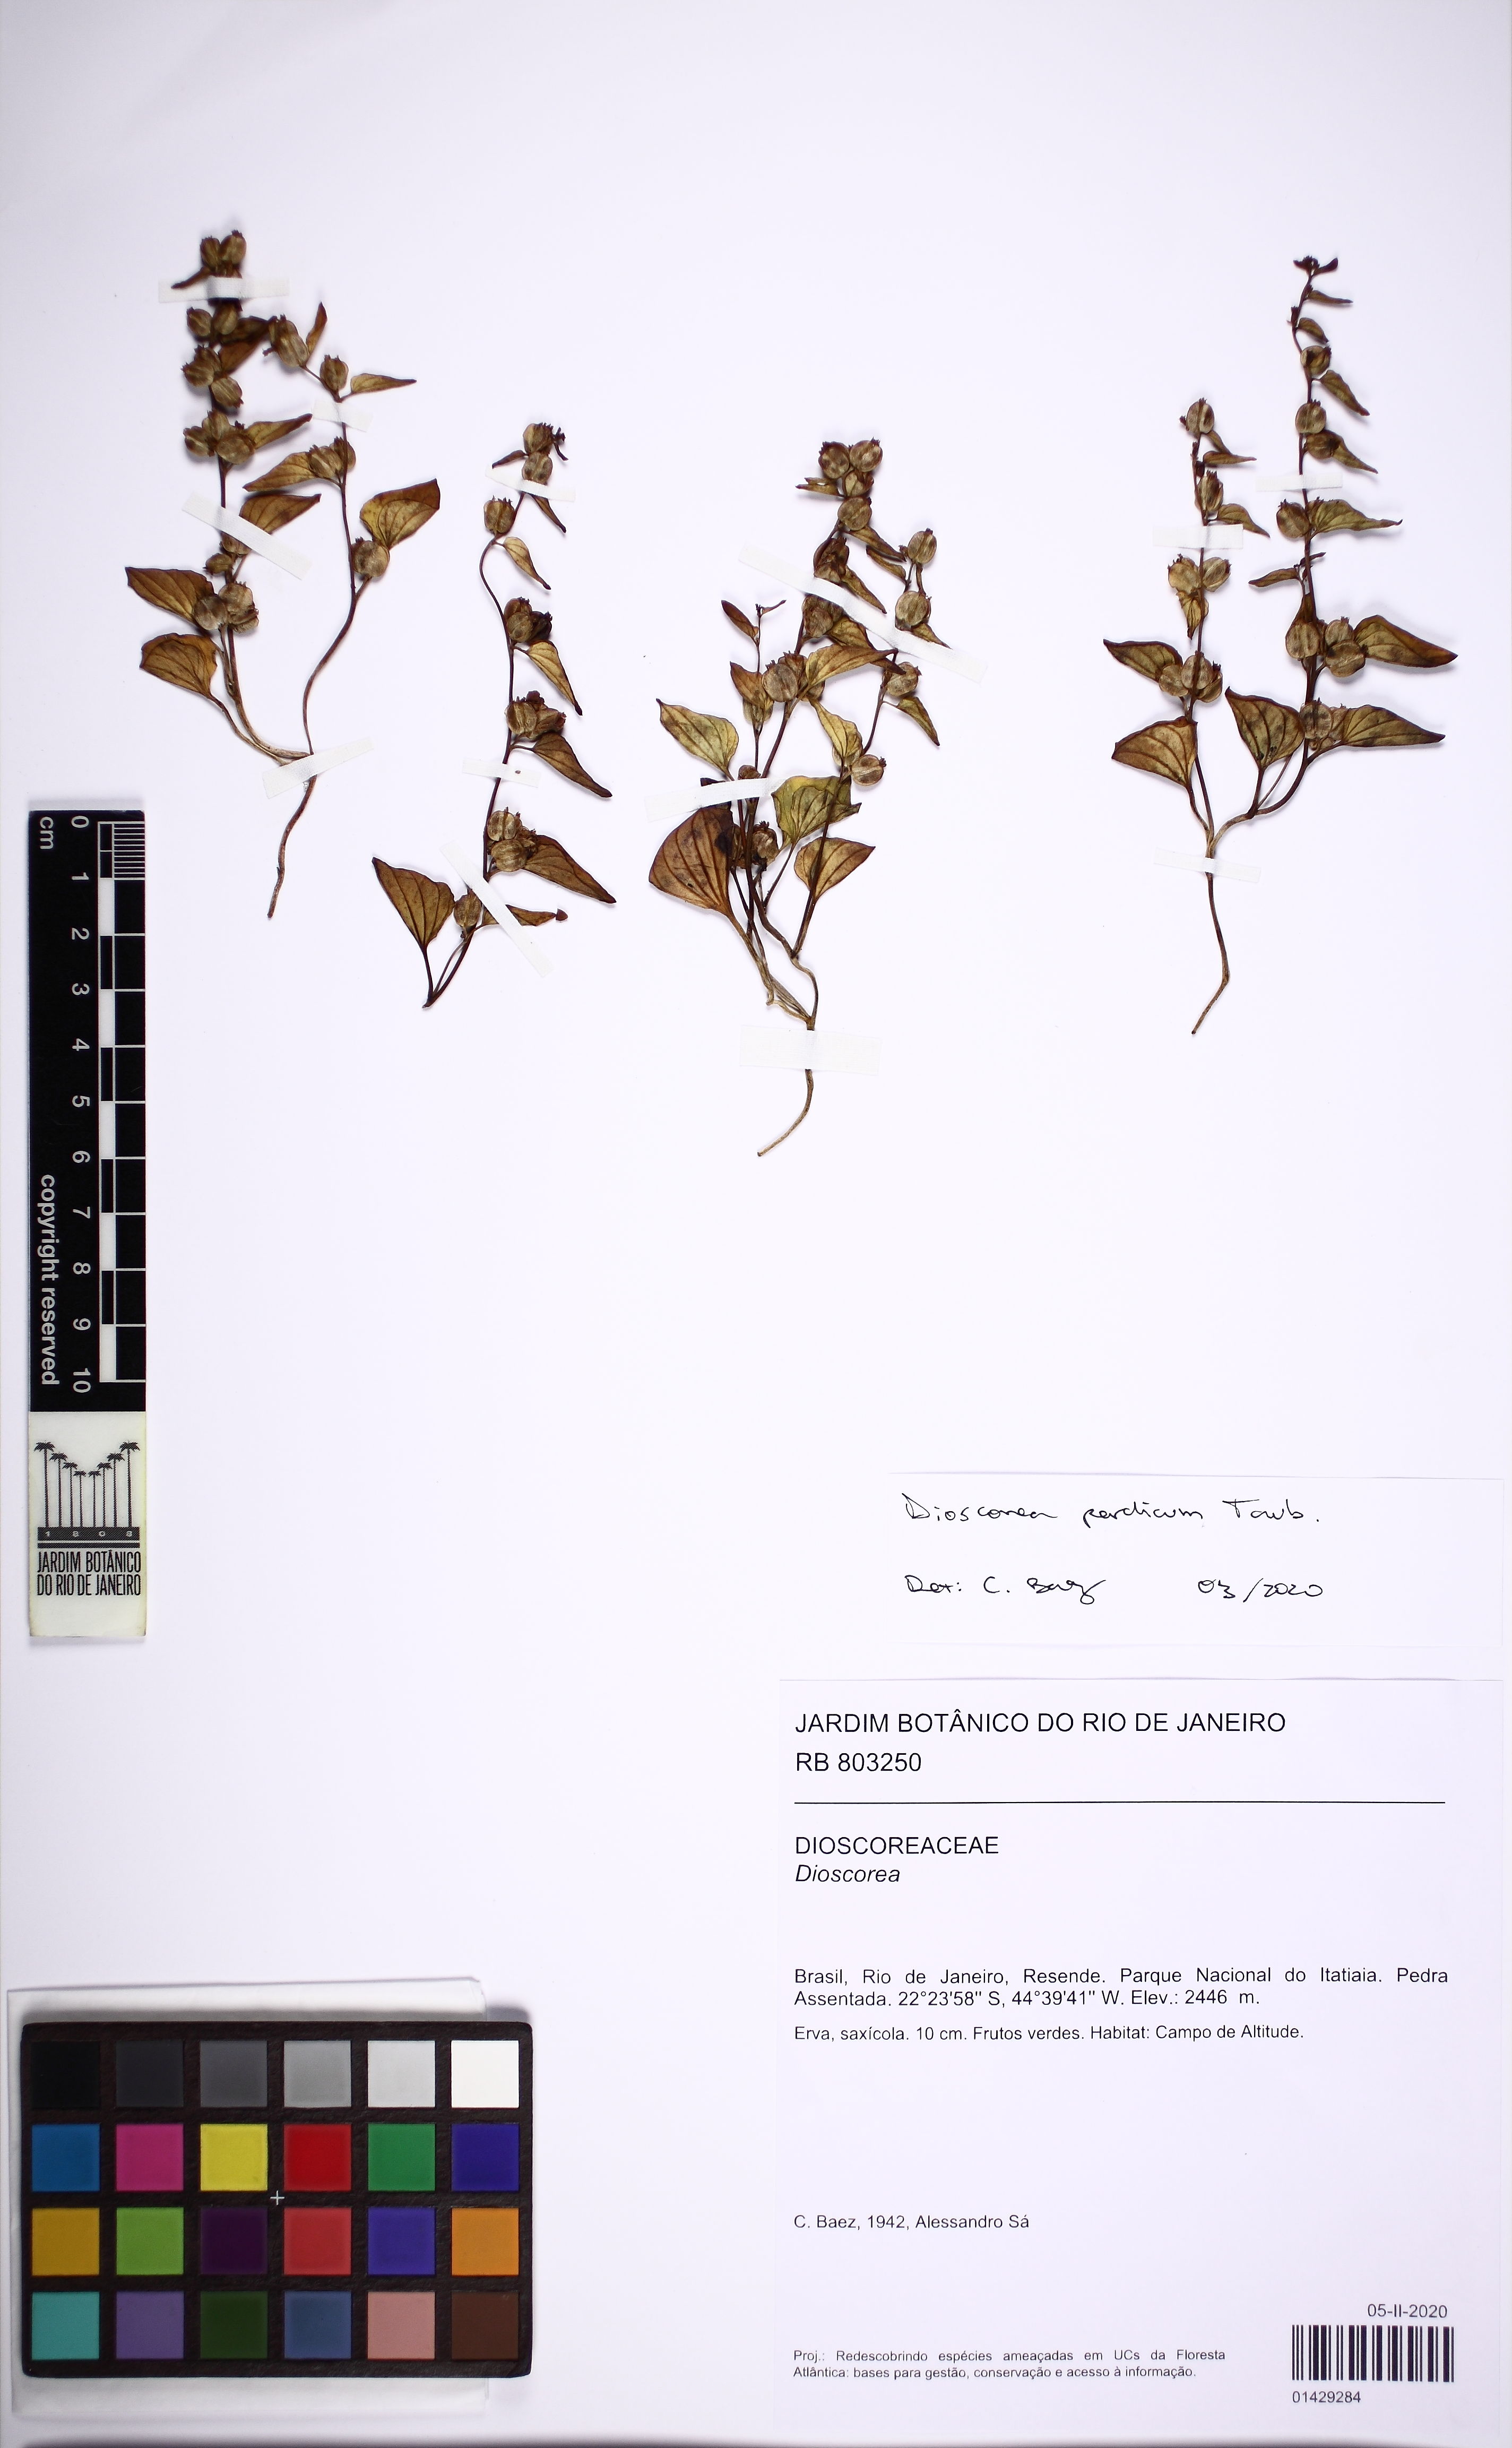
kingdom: Plantae
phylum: Tracheophyta
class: Liliopsida
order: Dioscoreales
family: Dioscoreaceae
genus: Dioscorea
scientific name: Dioscorea perdicum
